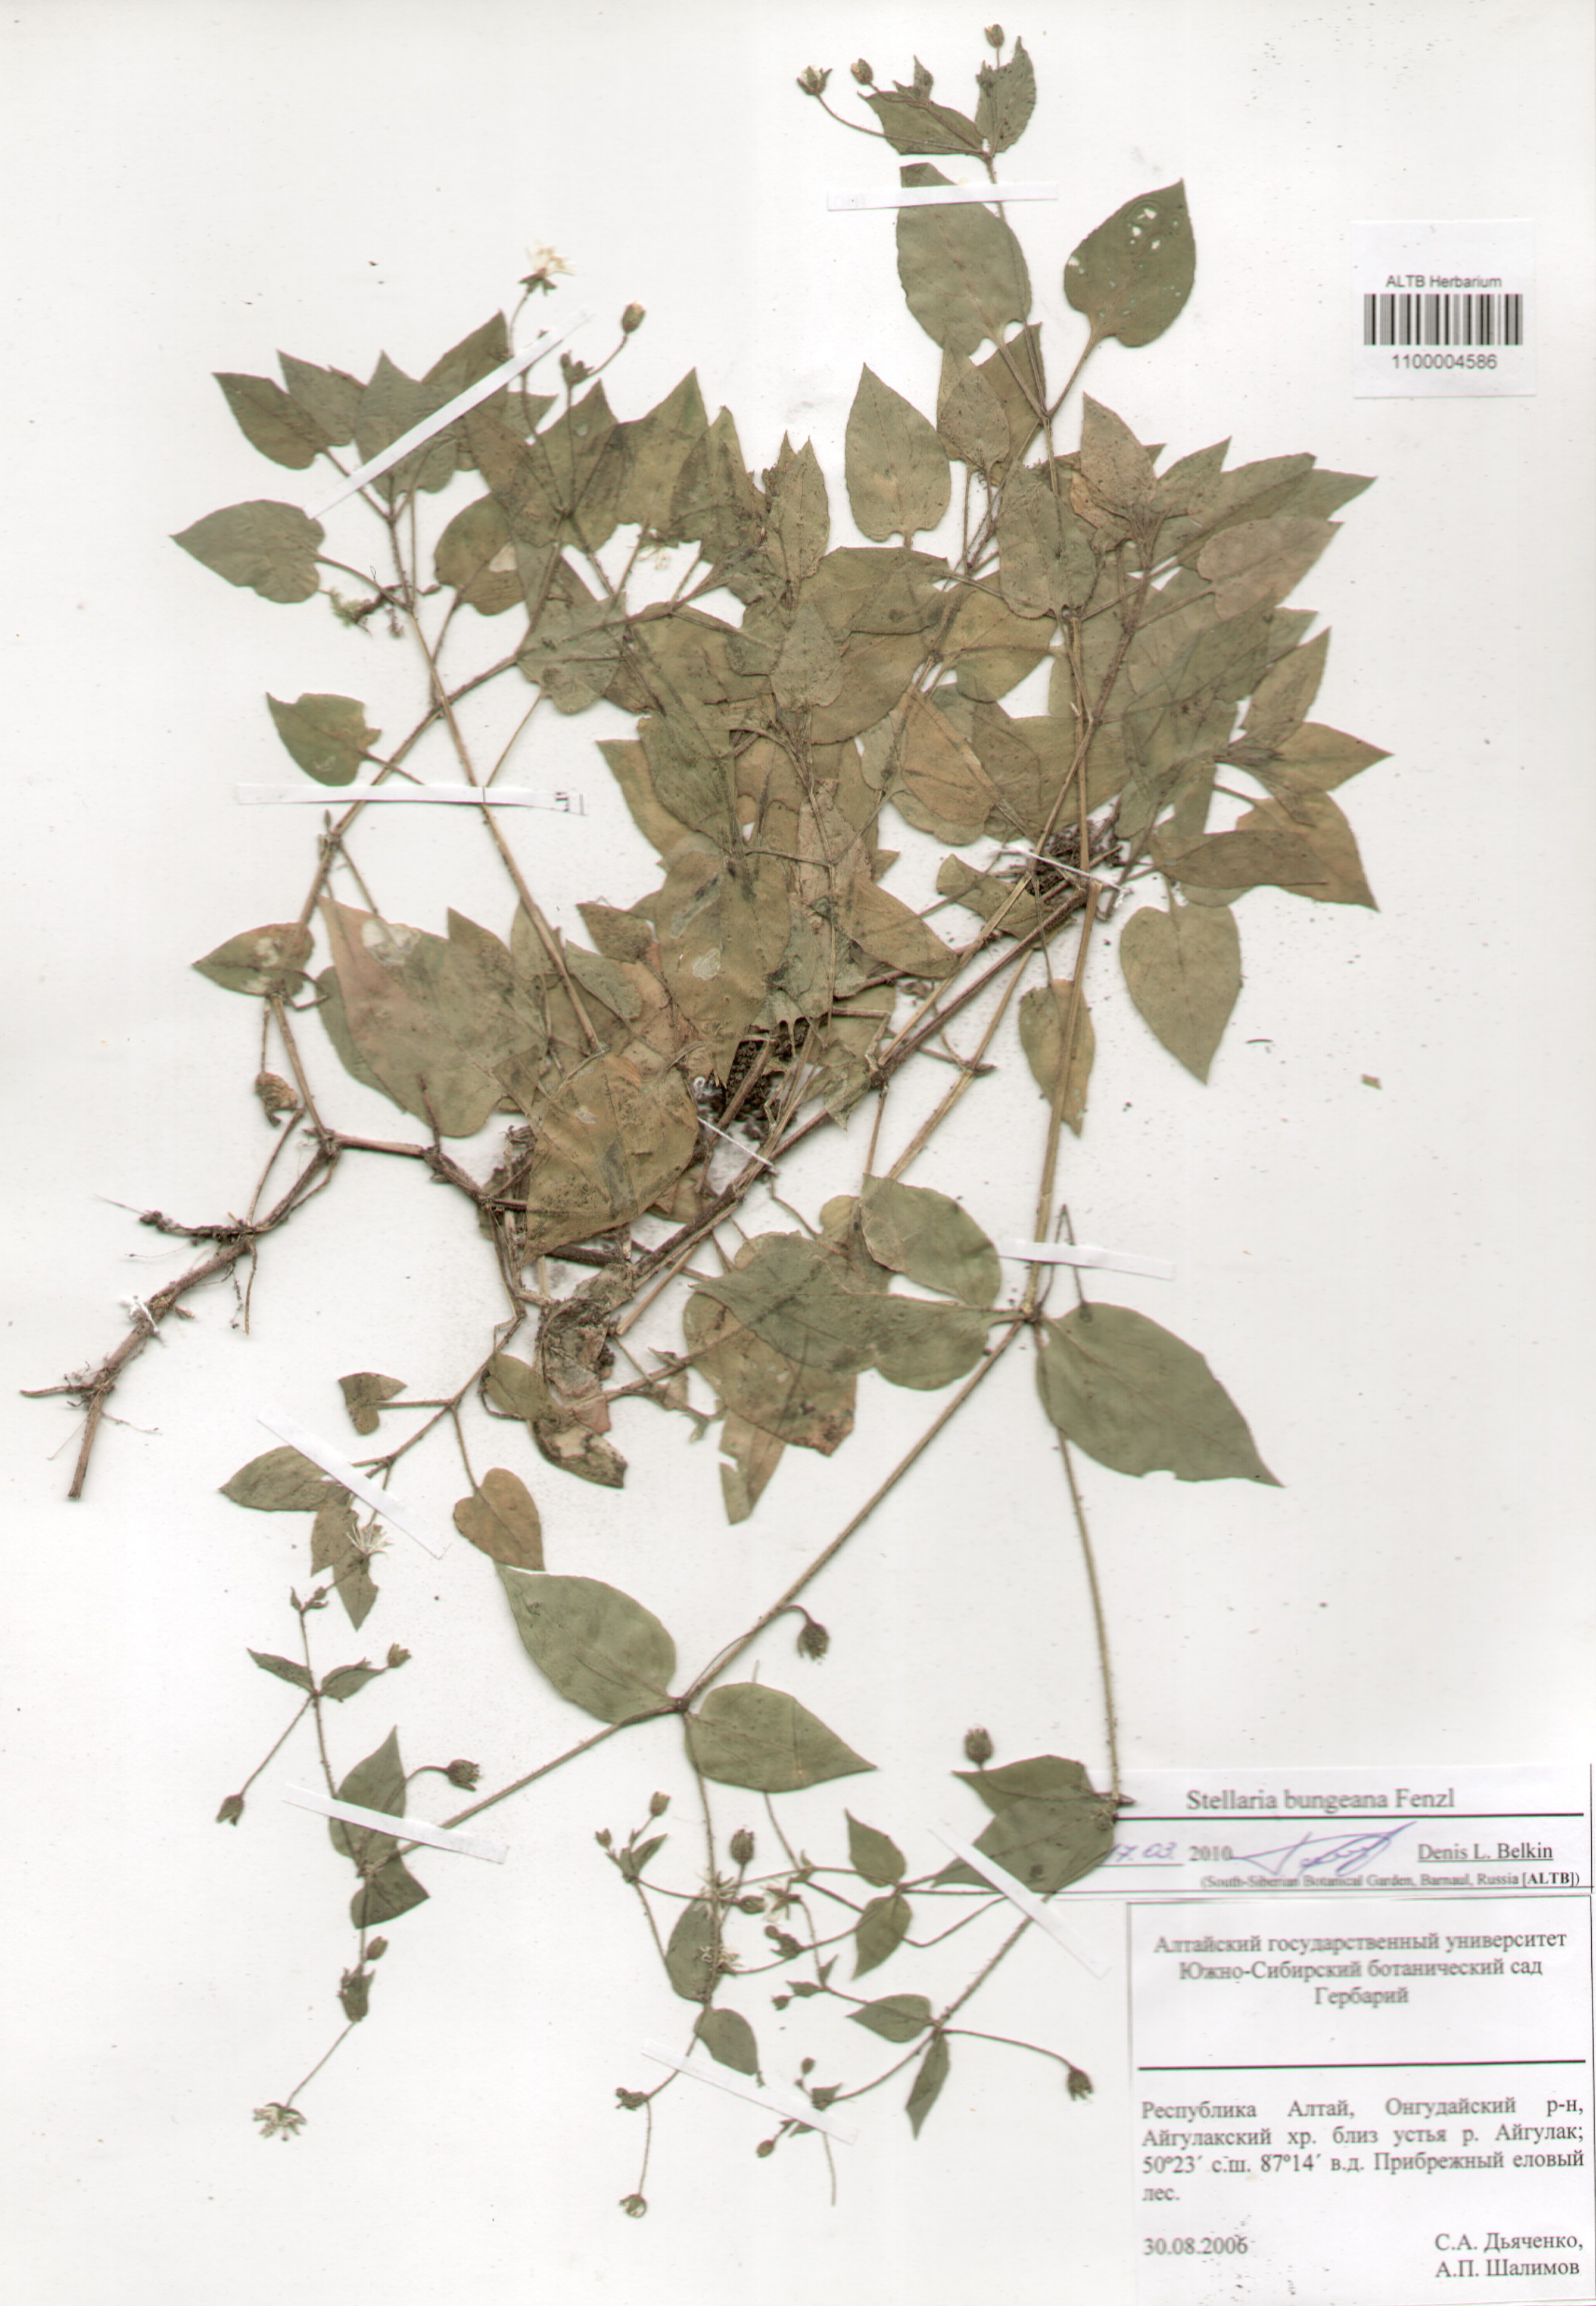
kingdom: Plantae
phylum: Tracheophyta
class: Magnoliopsida
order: Caryophyllales
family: Caryophyllaceae
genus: Stellaria
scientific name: Stellaria bungeana
